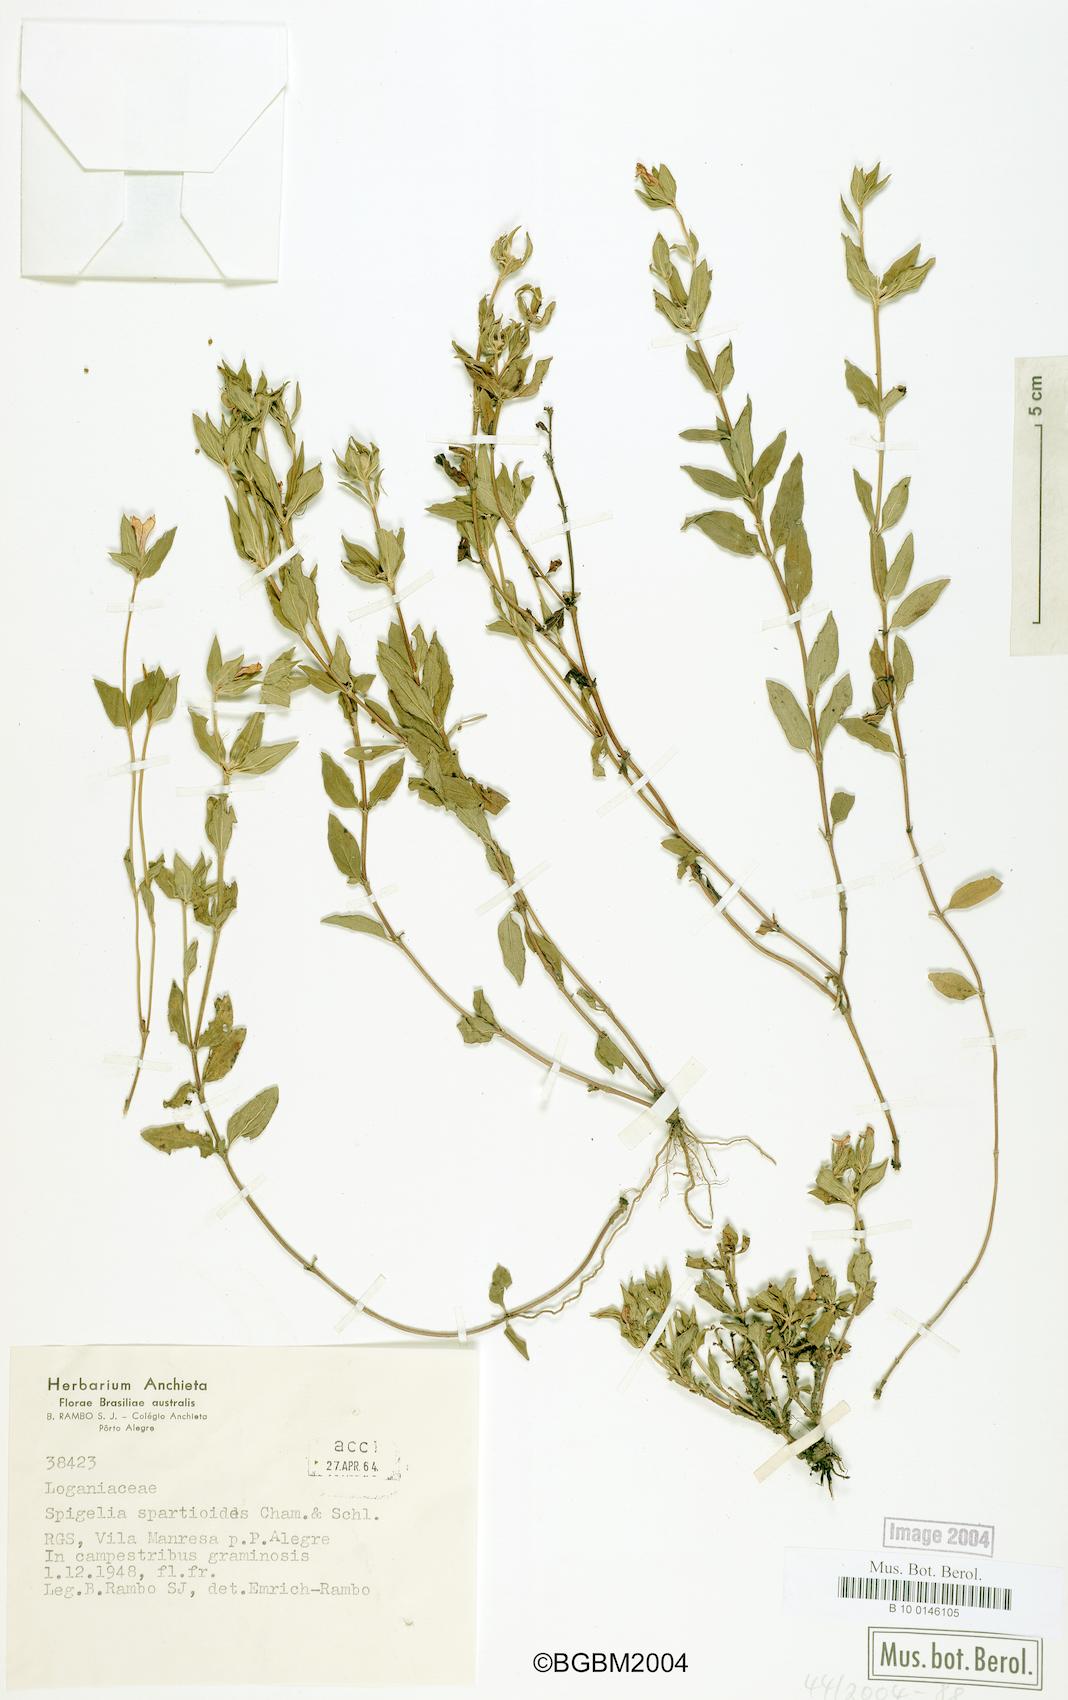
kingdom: Plantae
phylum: Tracheophyta
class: Magnoliopsida
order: Gentianales
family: Loganiaceae
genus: Spigelia
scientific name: Spigelia spartioides
